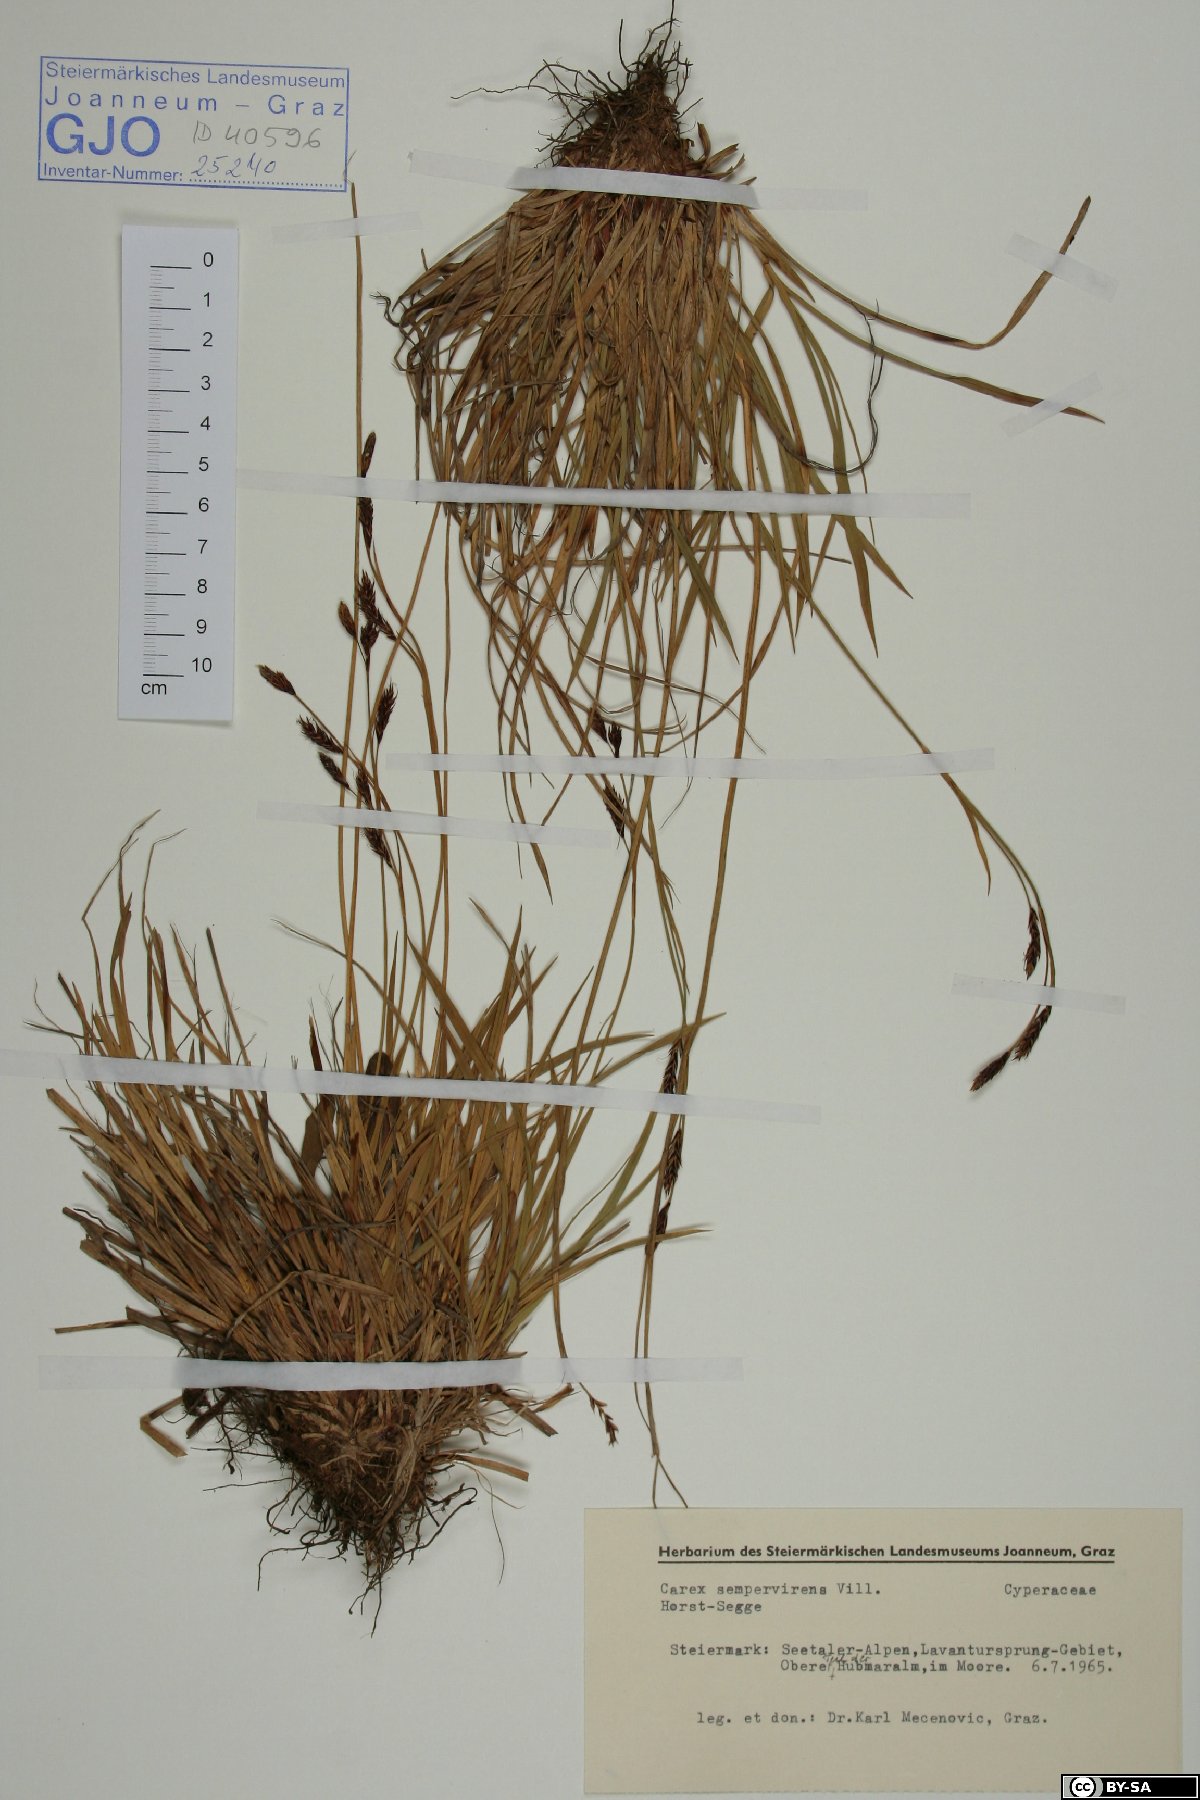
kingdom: Plantae
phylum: Tracheophyta
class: Liliopsida
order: Poales
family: Cyperaceae
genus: Carex
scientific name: Carex sempervirens
